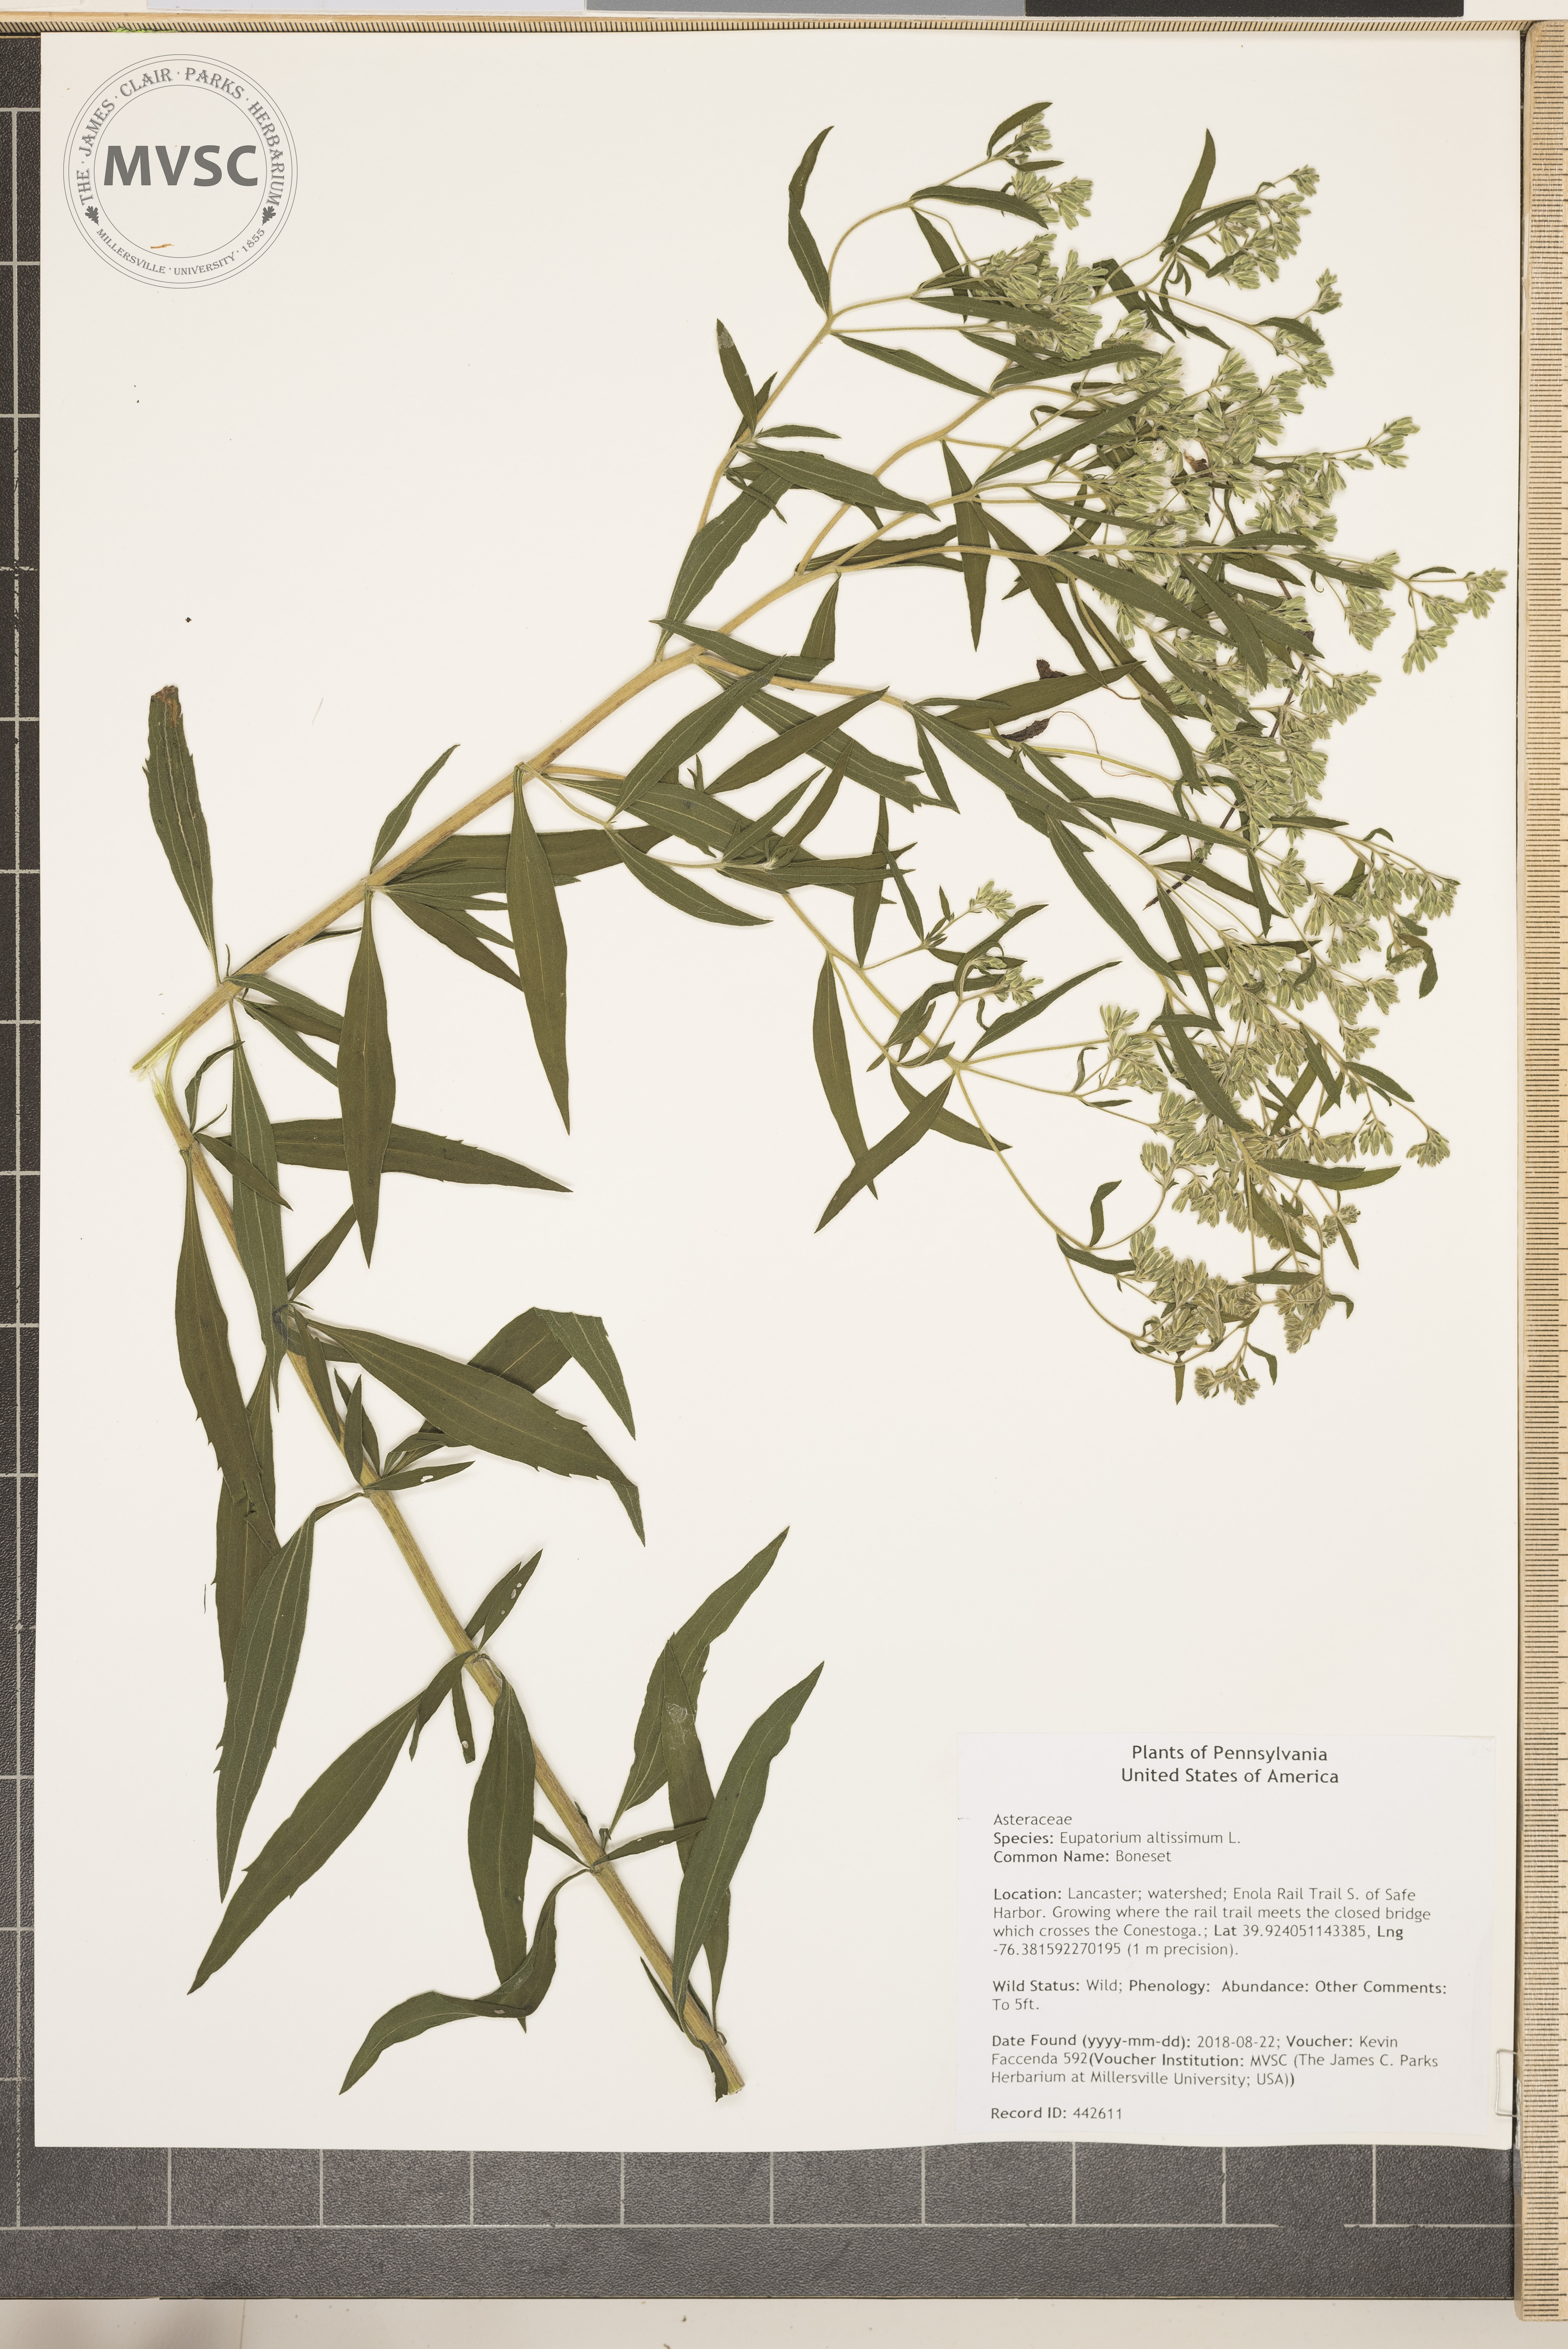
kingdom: Plantae
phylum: Tracheophyta
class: Magnoliopsida
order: Asterales
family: Asteraceae
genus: Eupatorium
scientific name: Eupatorium altissimum
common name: Boneset
